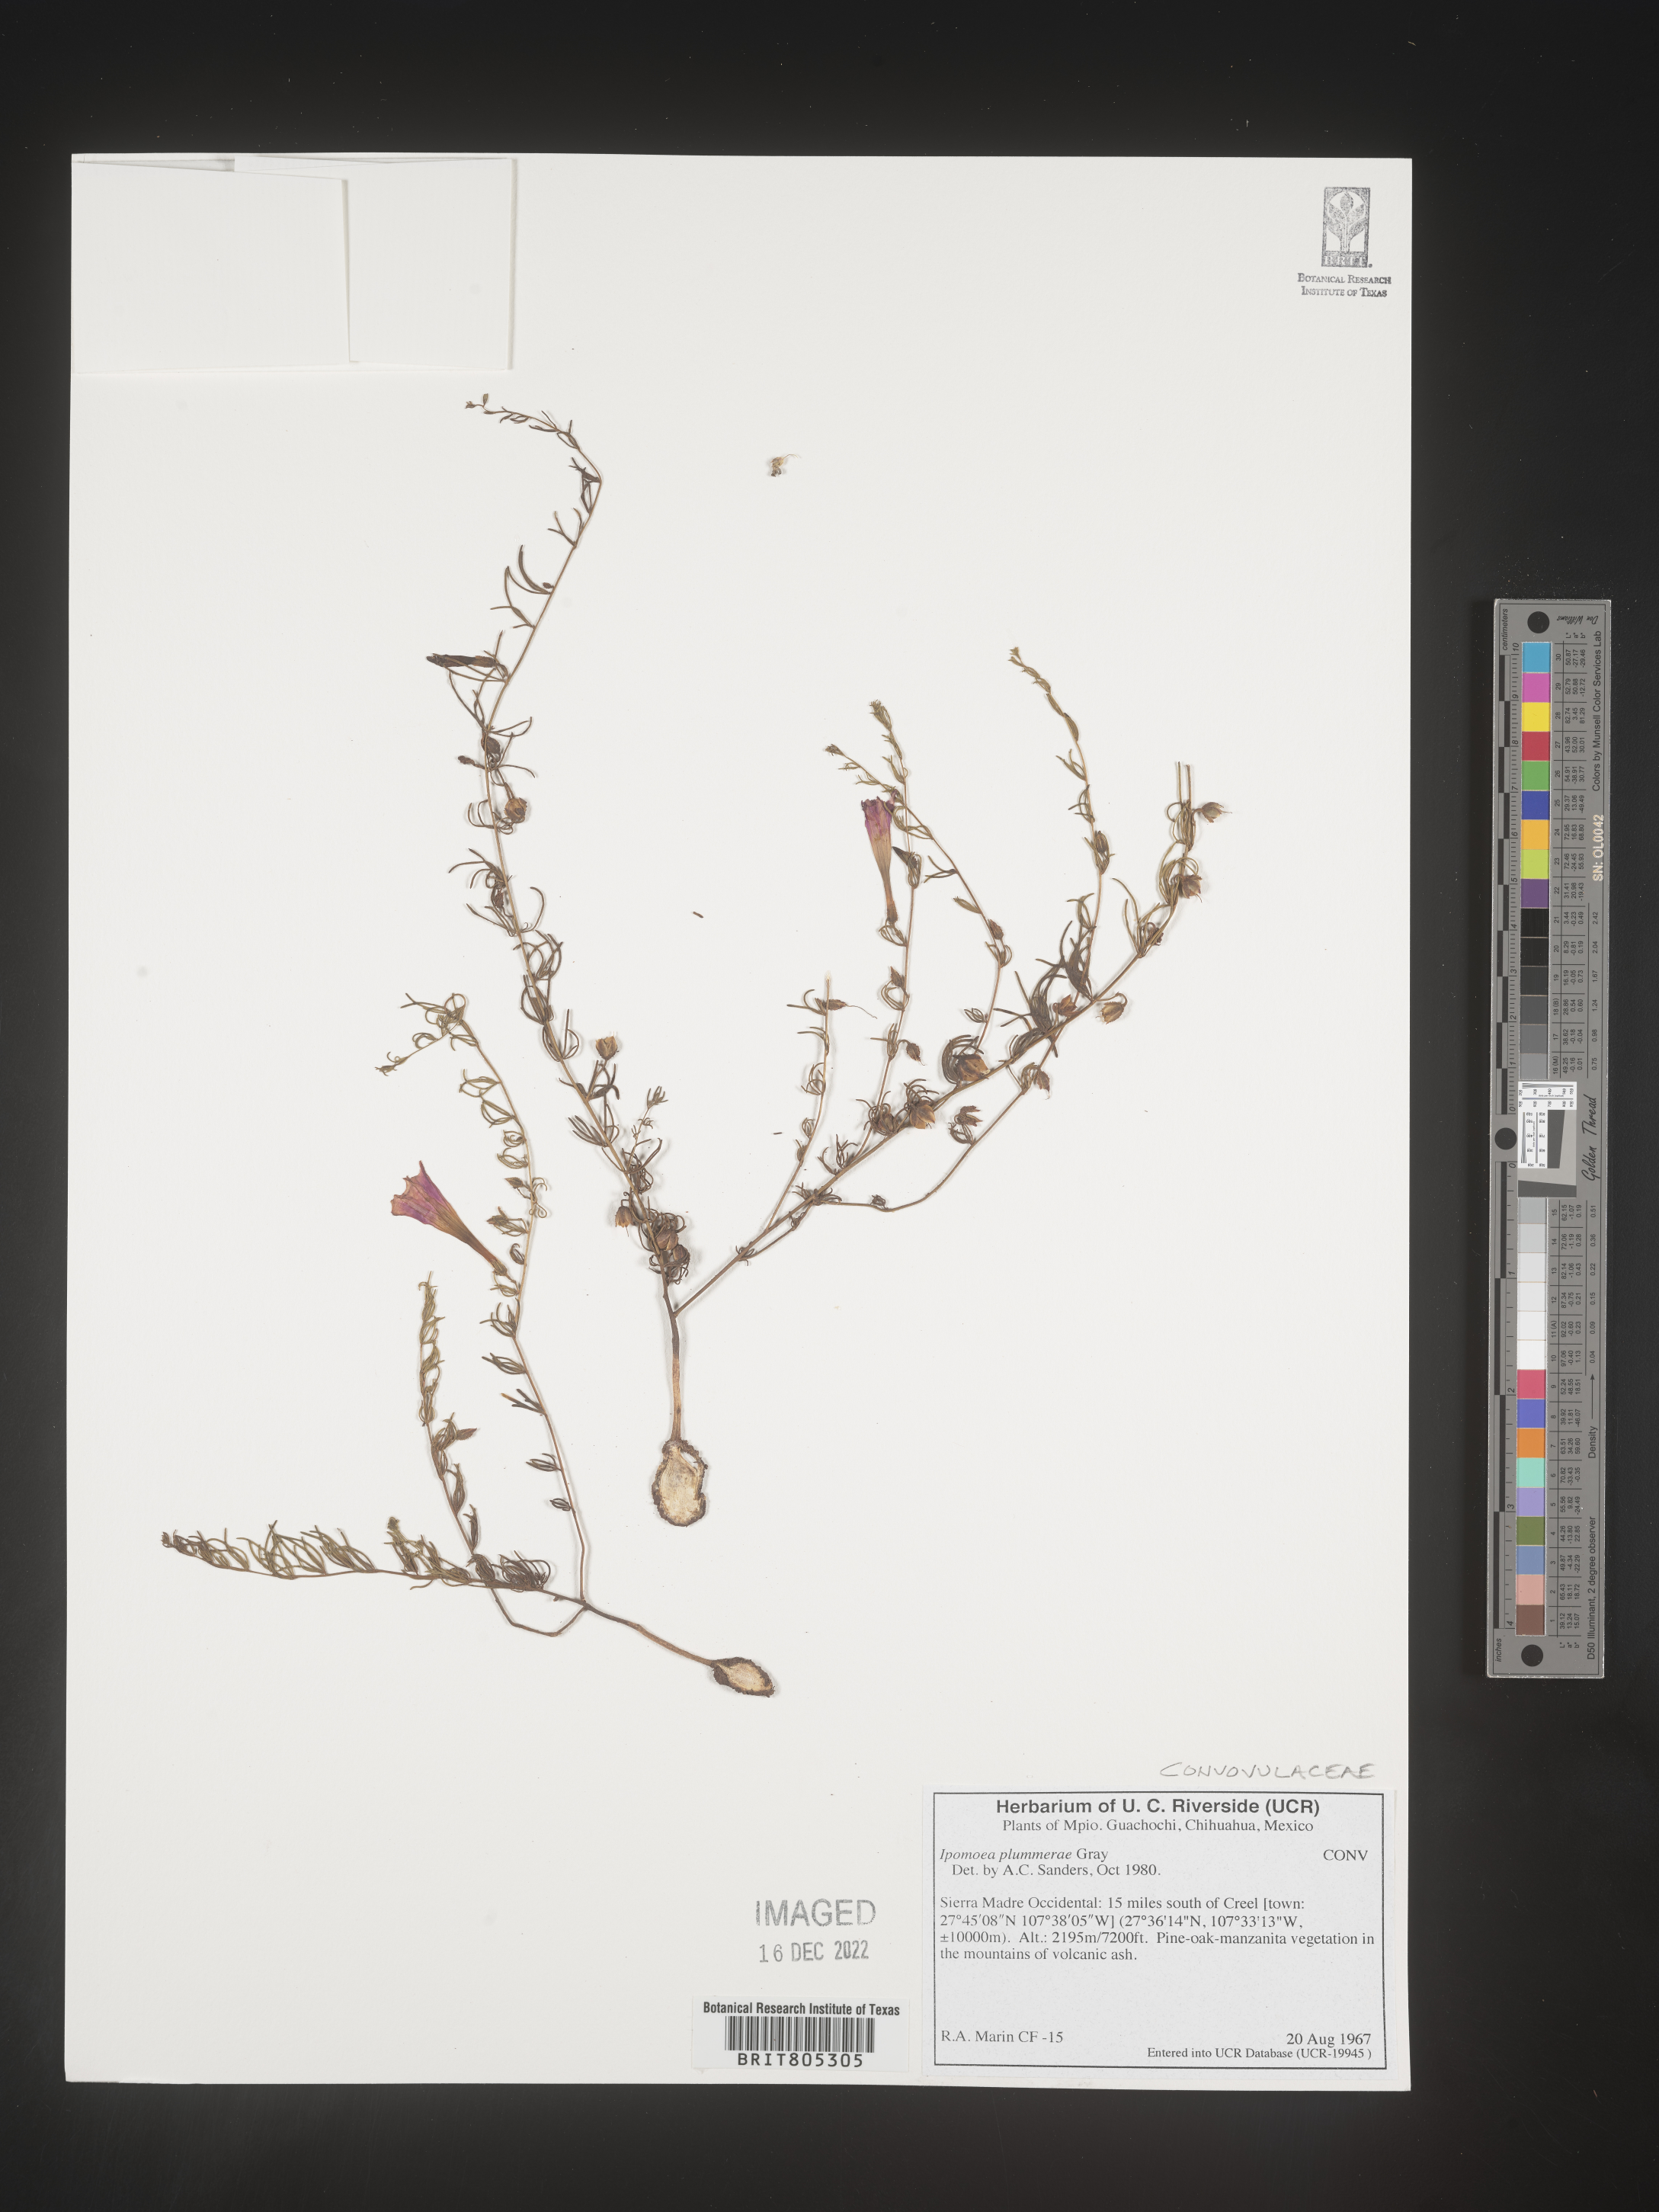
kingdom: Plantae
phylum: Tracheophyta
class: Magnoliopsida
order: Solanales
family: Convolvulaceae
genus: Ipomoea
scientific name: Ipomoea
